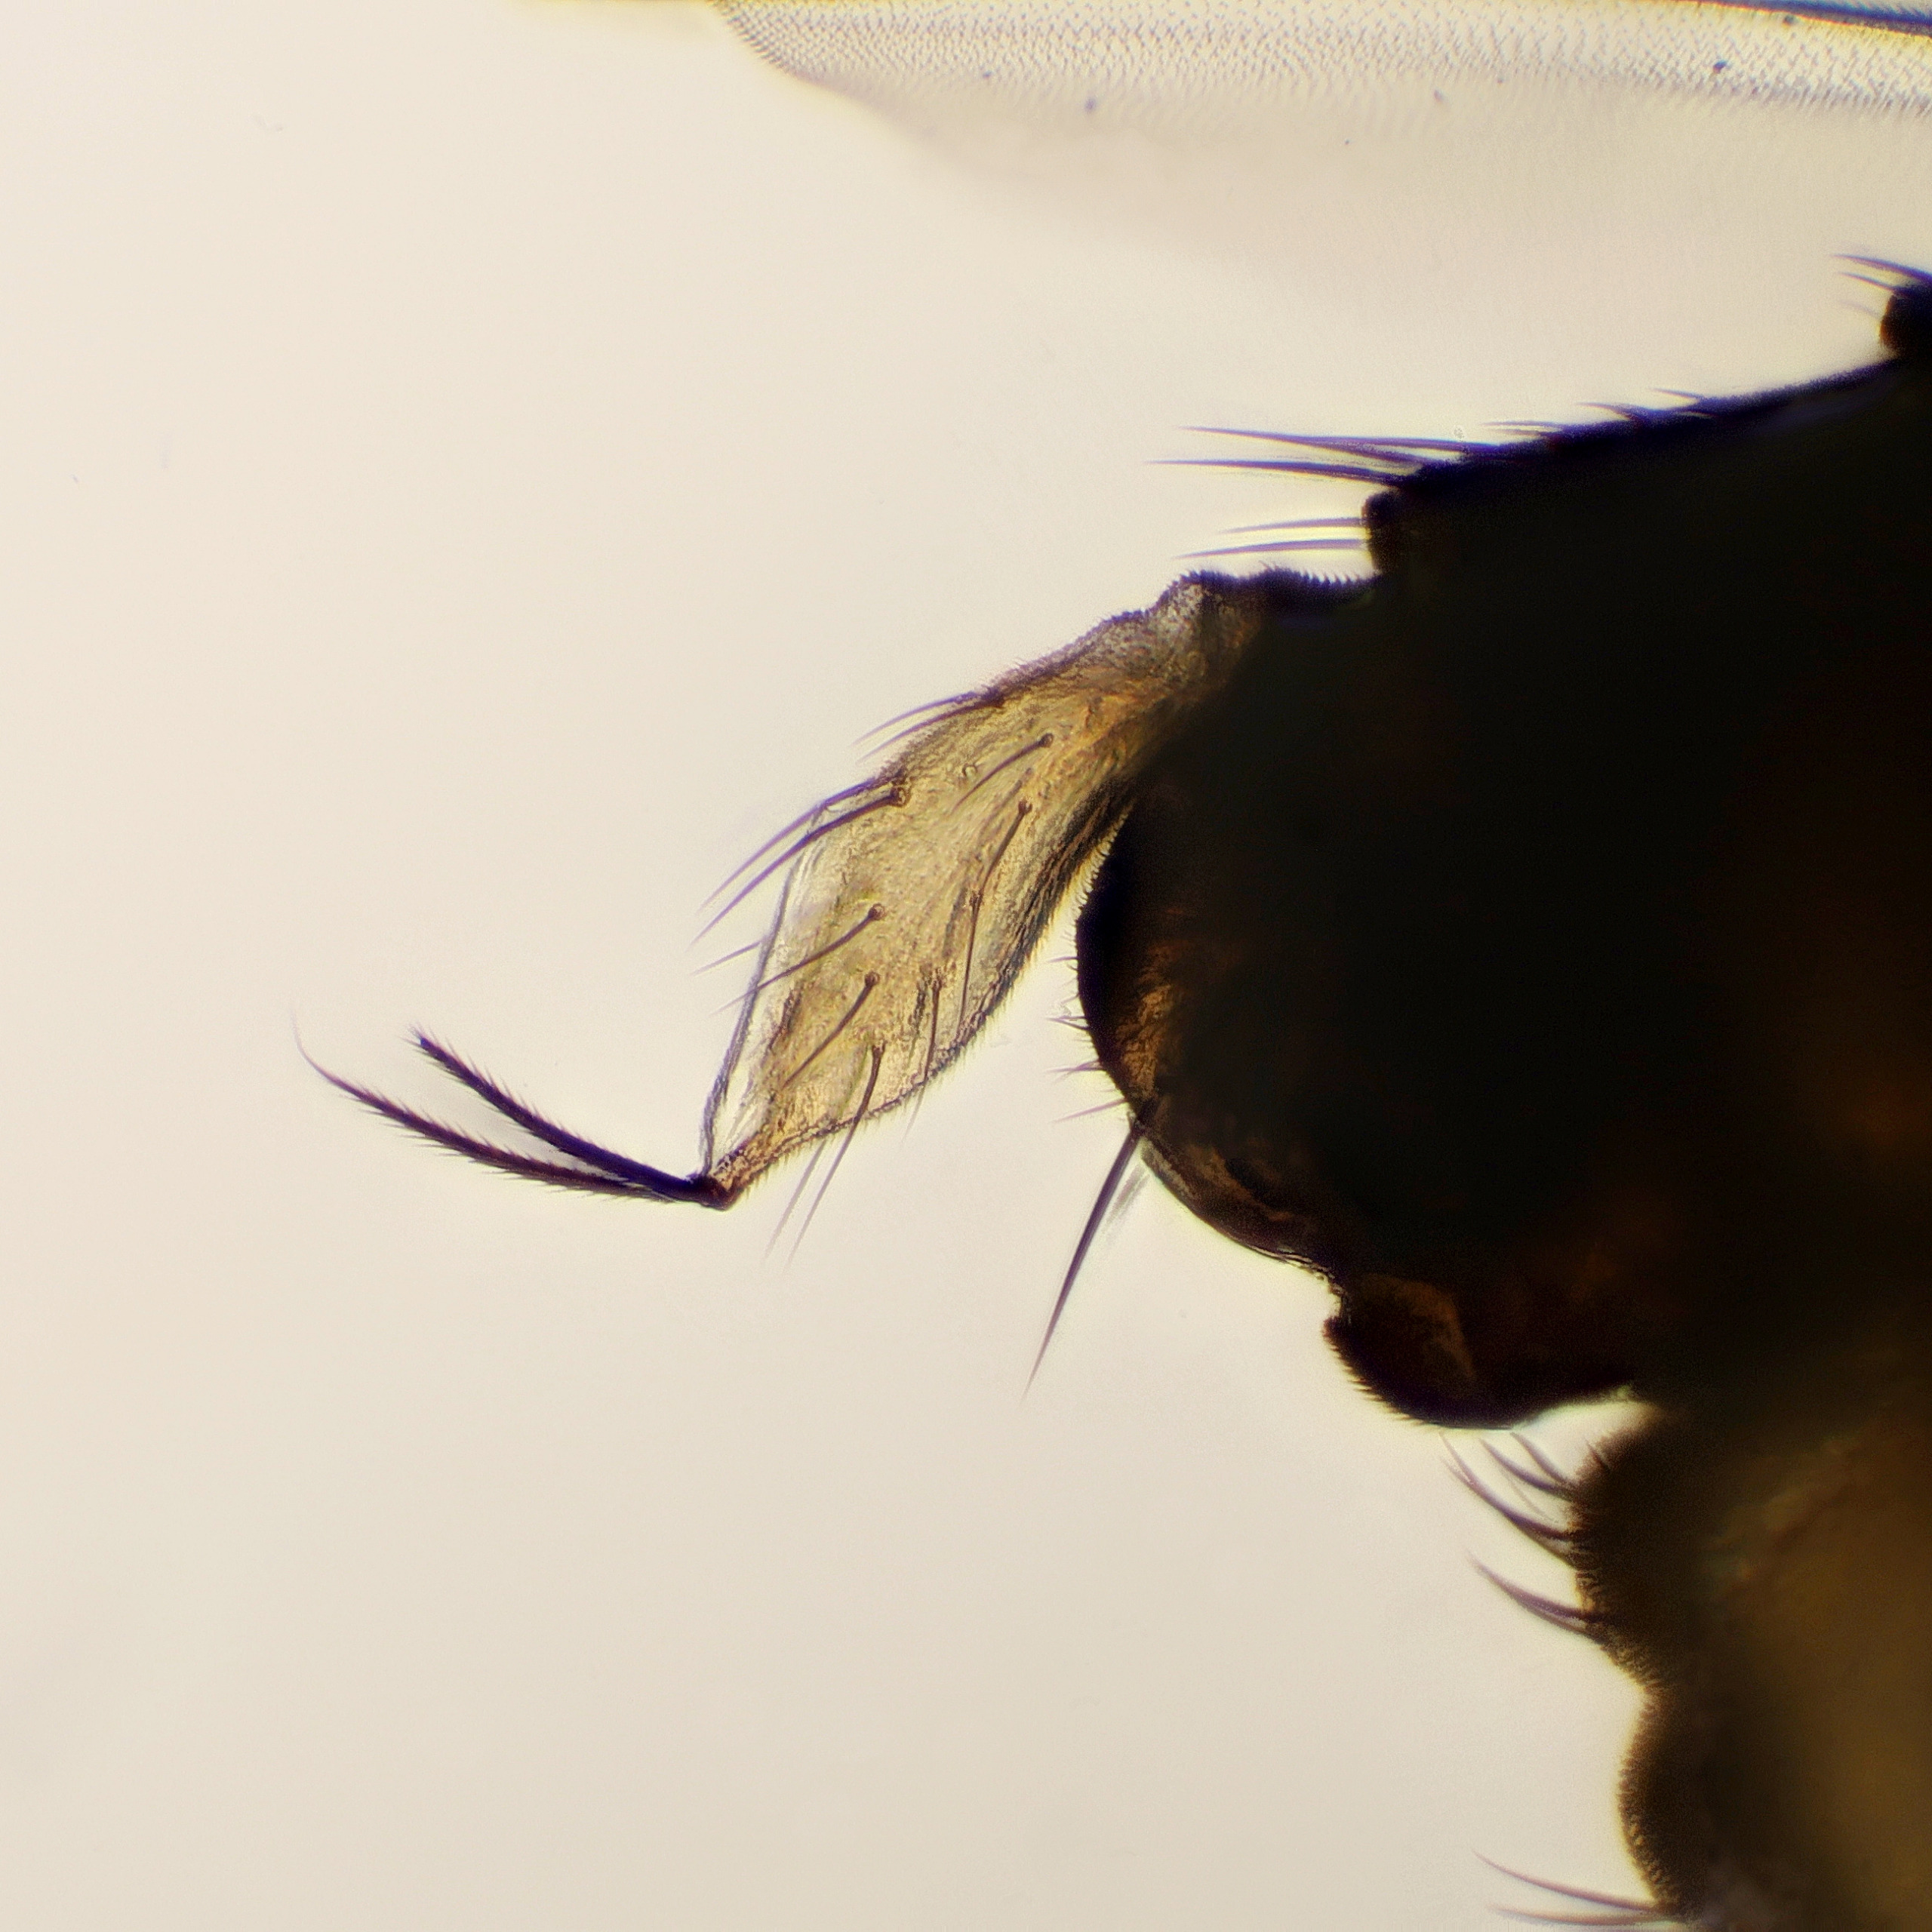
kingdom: Animalia
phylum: Arthropoda
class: Insecta
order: Diptera
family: Phoridae
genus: Megaselia
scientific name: Megaselia scalaris
